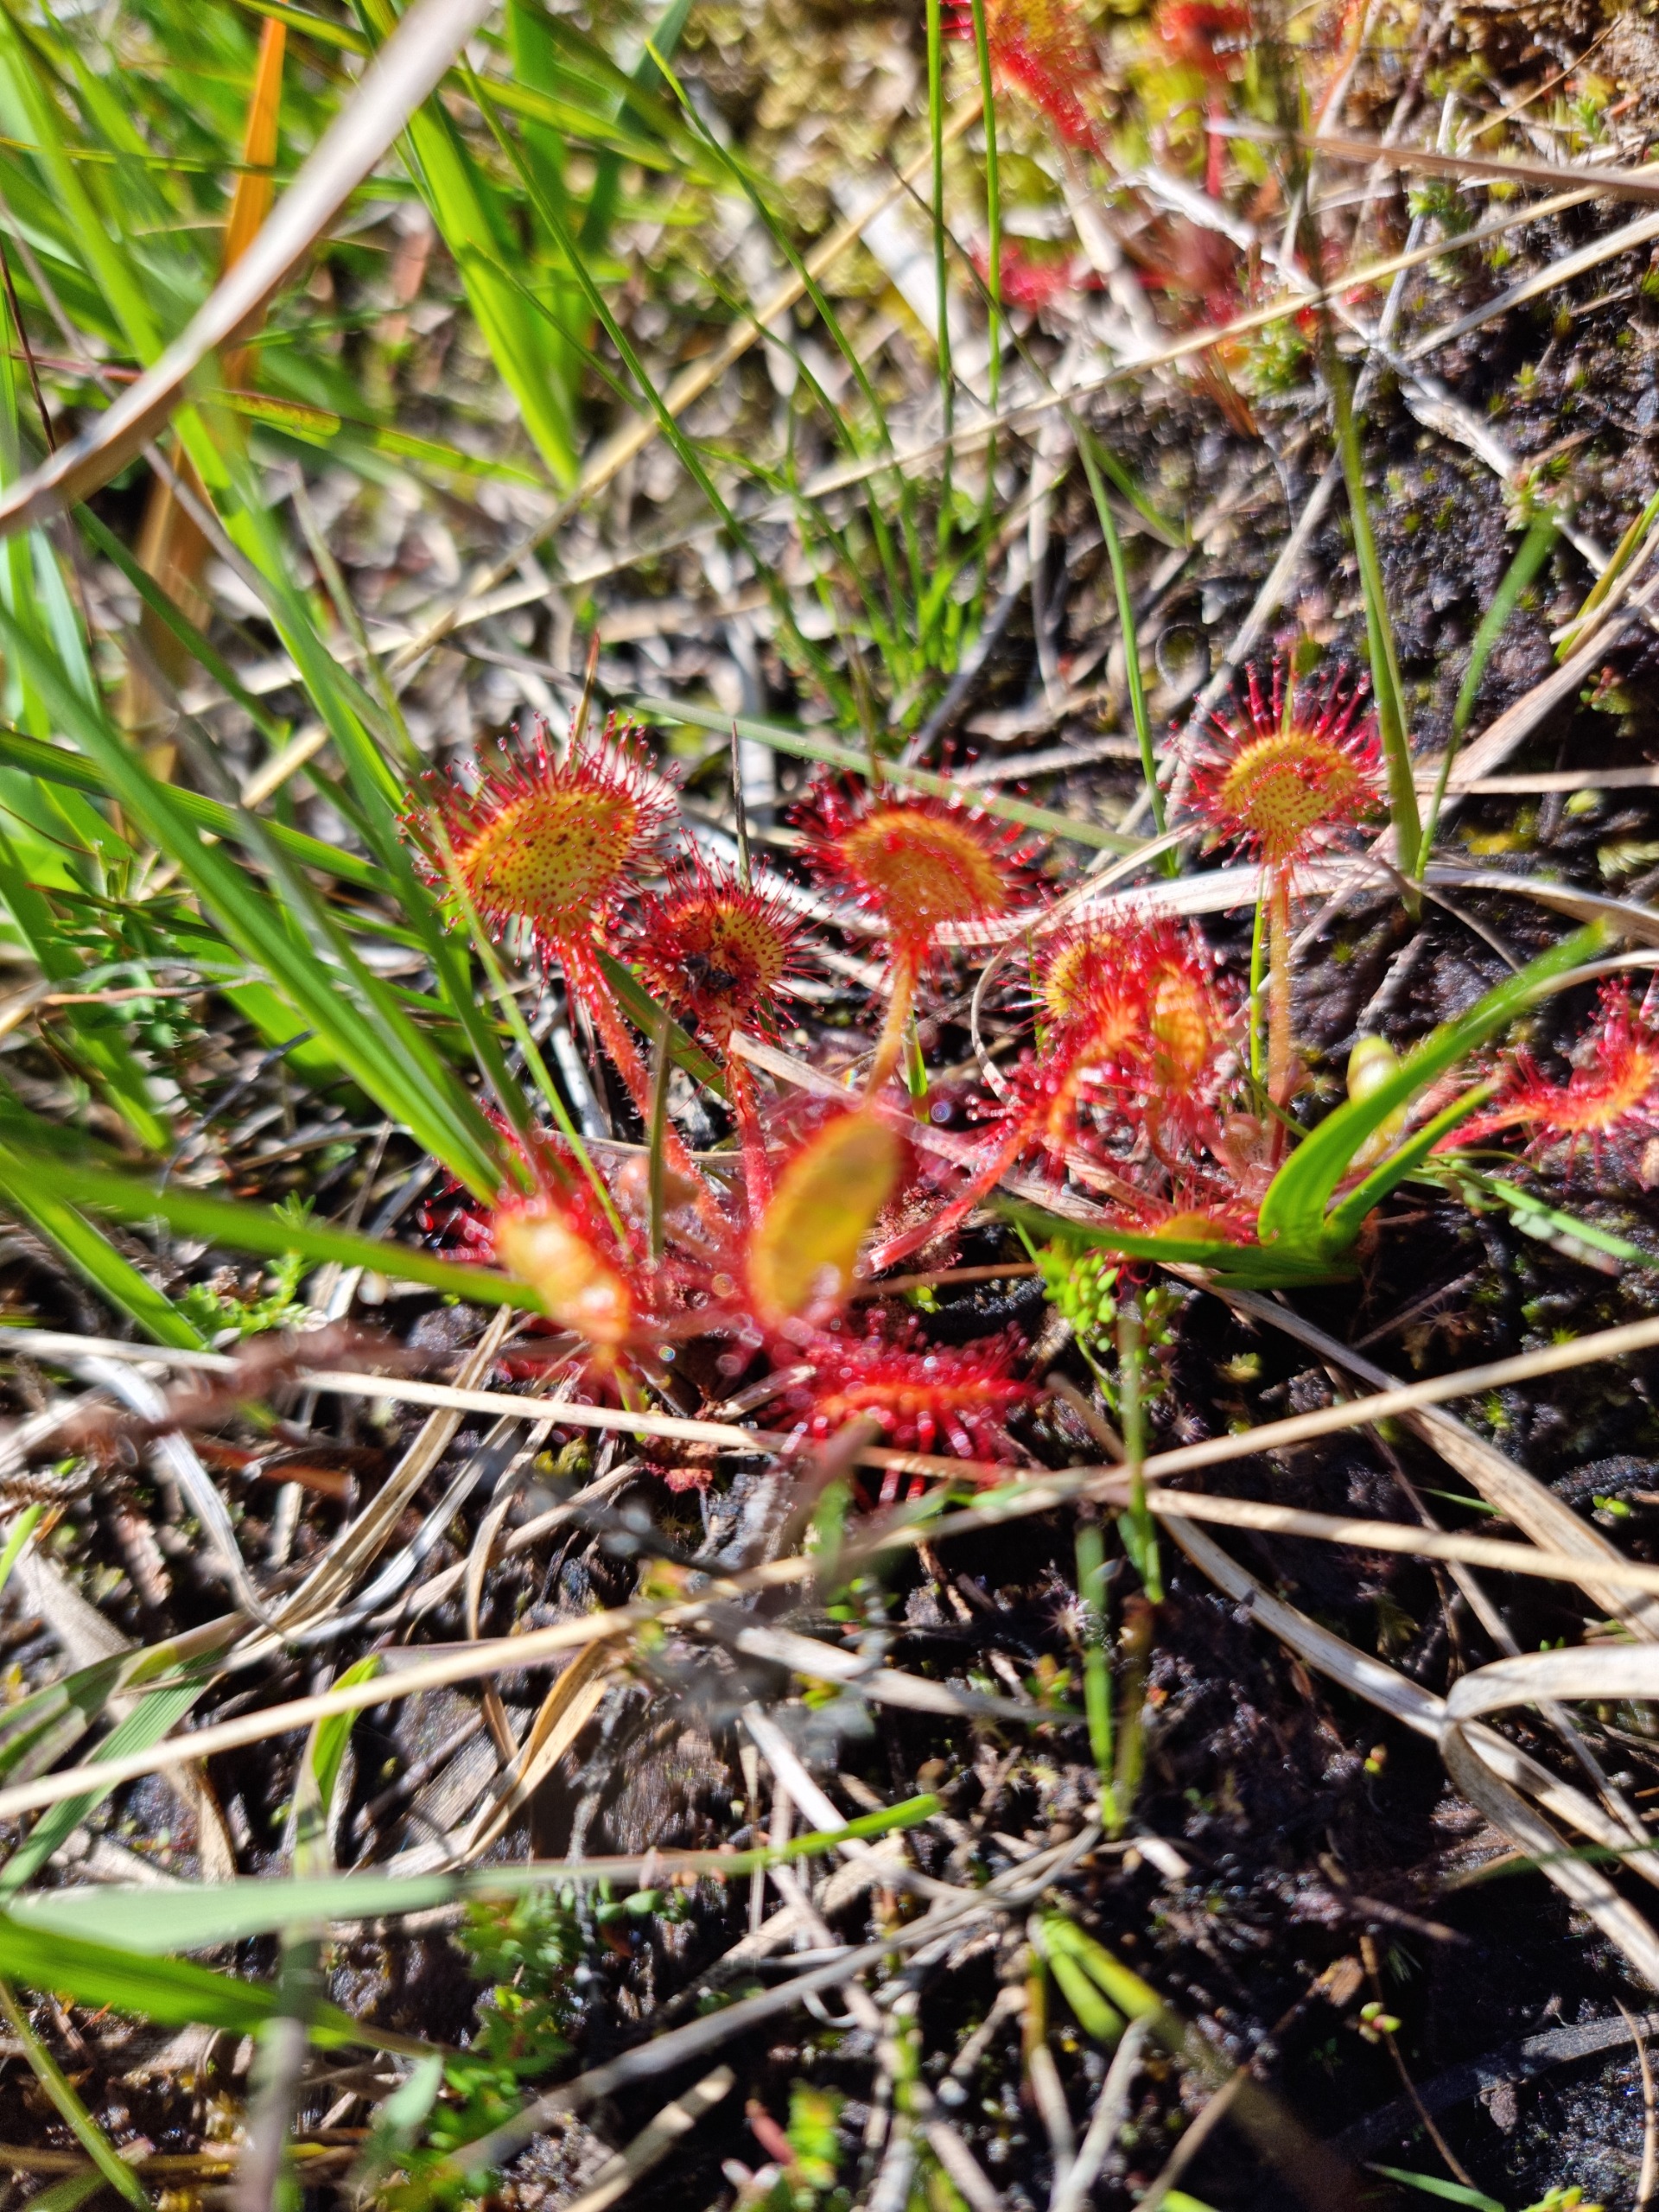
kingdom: Plantae
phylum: Tracheophyta
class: Magnoliopsida
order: Caryophyllales
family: Droseraceae
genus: Drosera
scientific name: Drosera rotundifolia
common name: Rundbladet soldug
